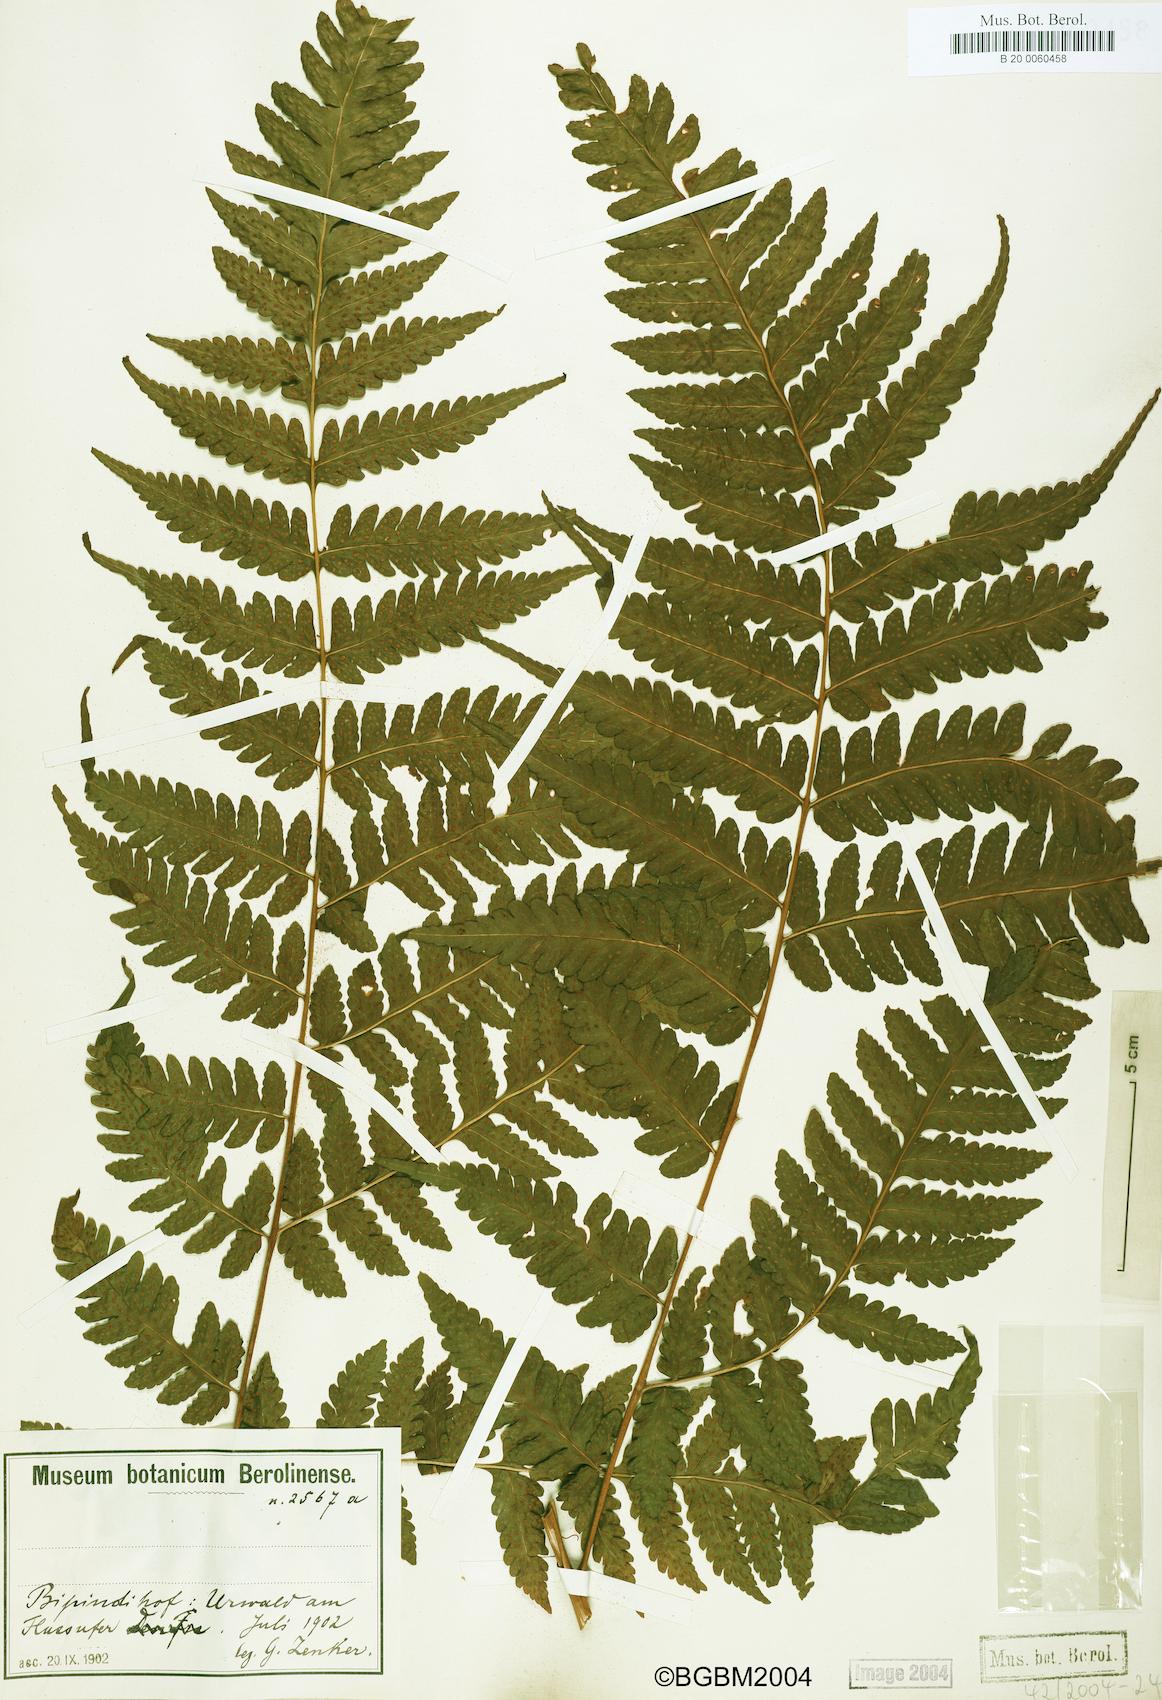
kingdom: Plantae
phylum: Tracheophyta
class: Polypodiopsida
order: Polypodiales
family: Dryopteridaceae
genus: Parapolystichum
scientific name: Parapolystichum nigritianum
